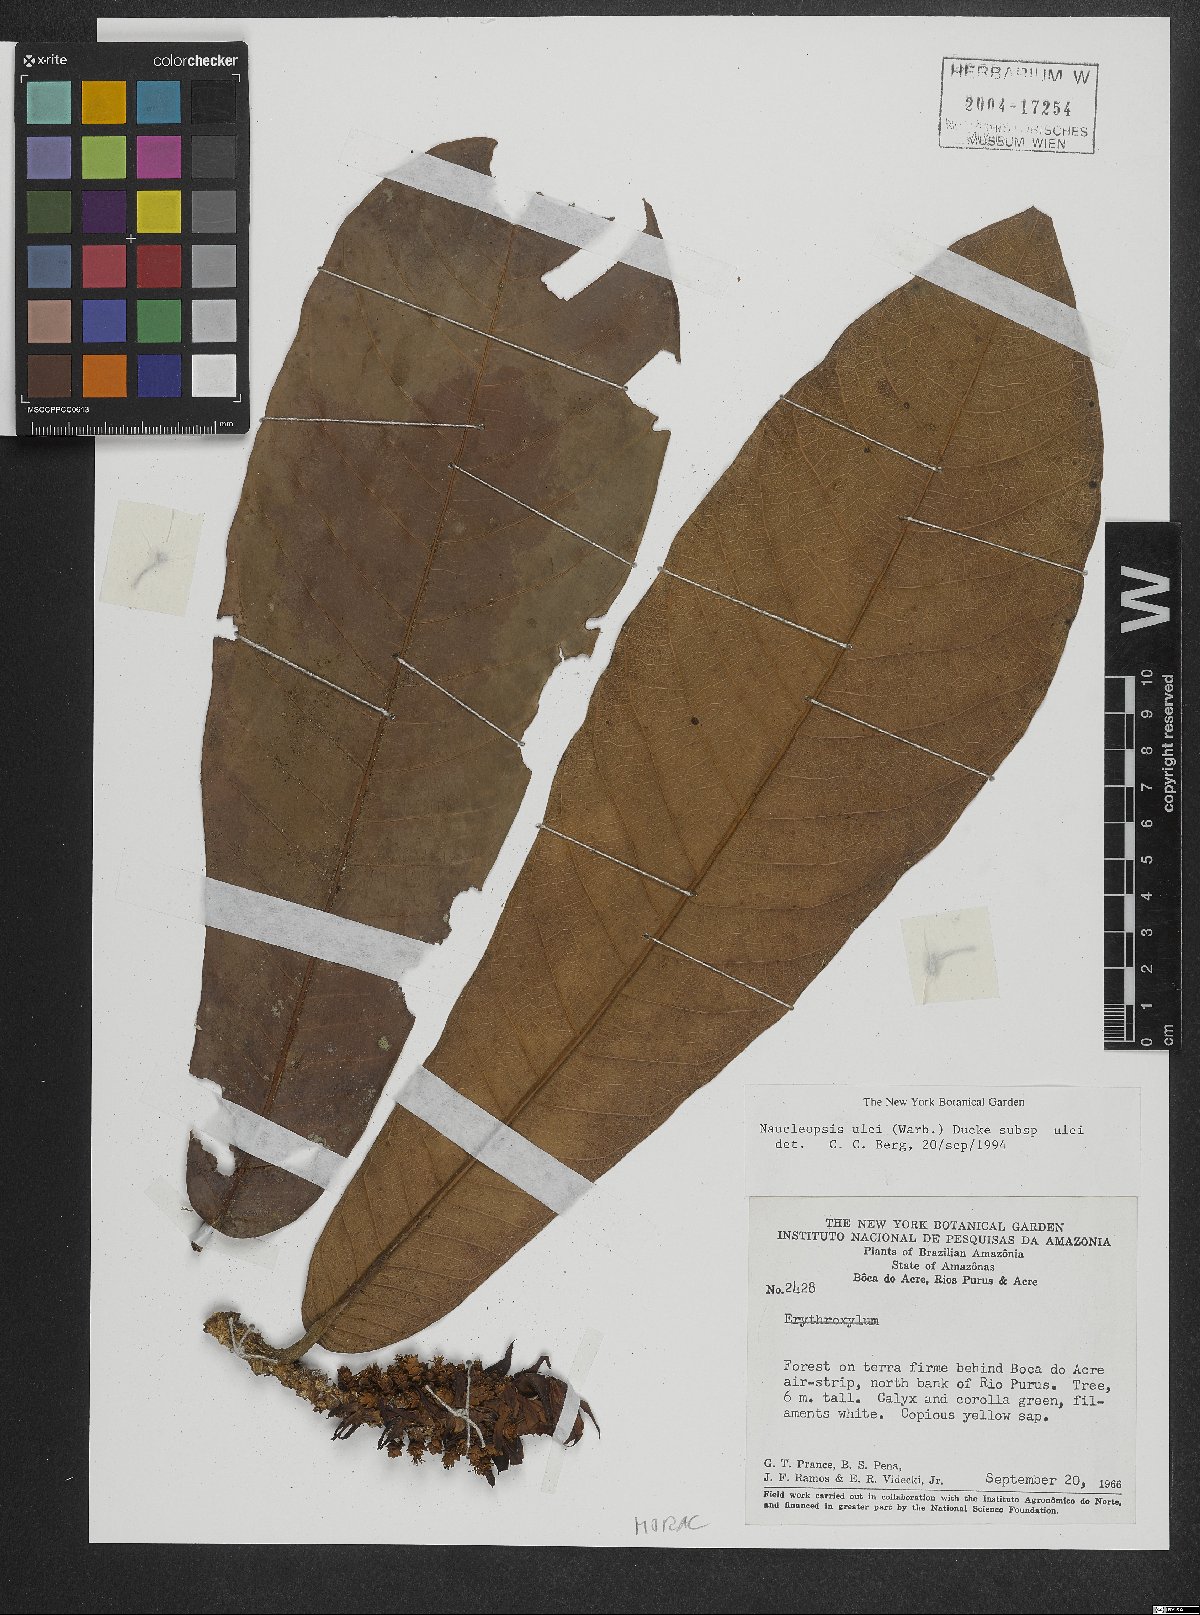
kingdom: Plantae
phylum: Tracheophyta
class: Magnoliopsida
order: Rosales
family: Moraceae
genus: Naucleopsis
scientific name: Naucleopsis ulei
